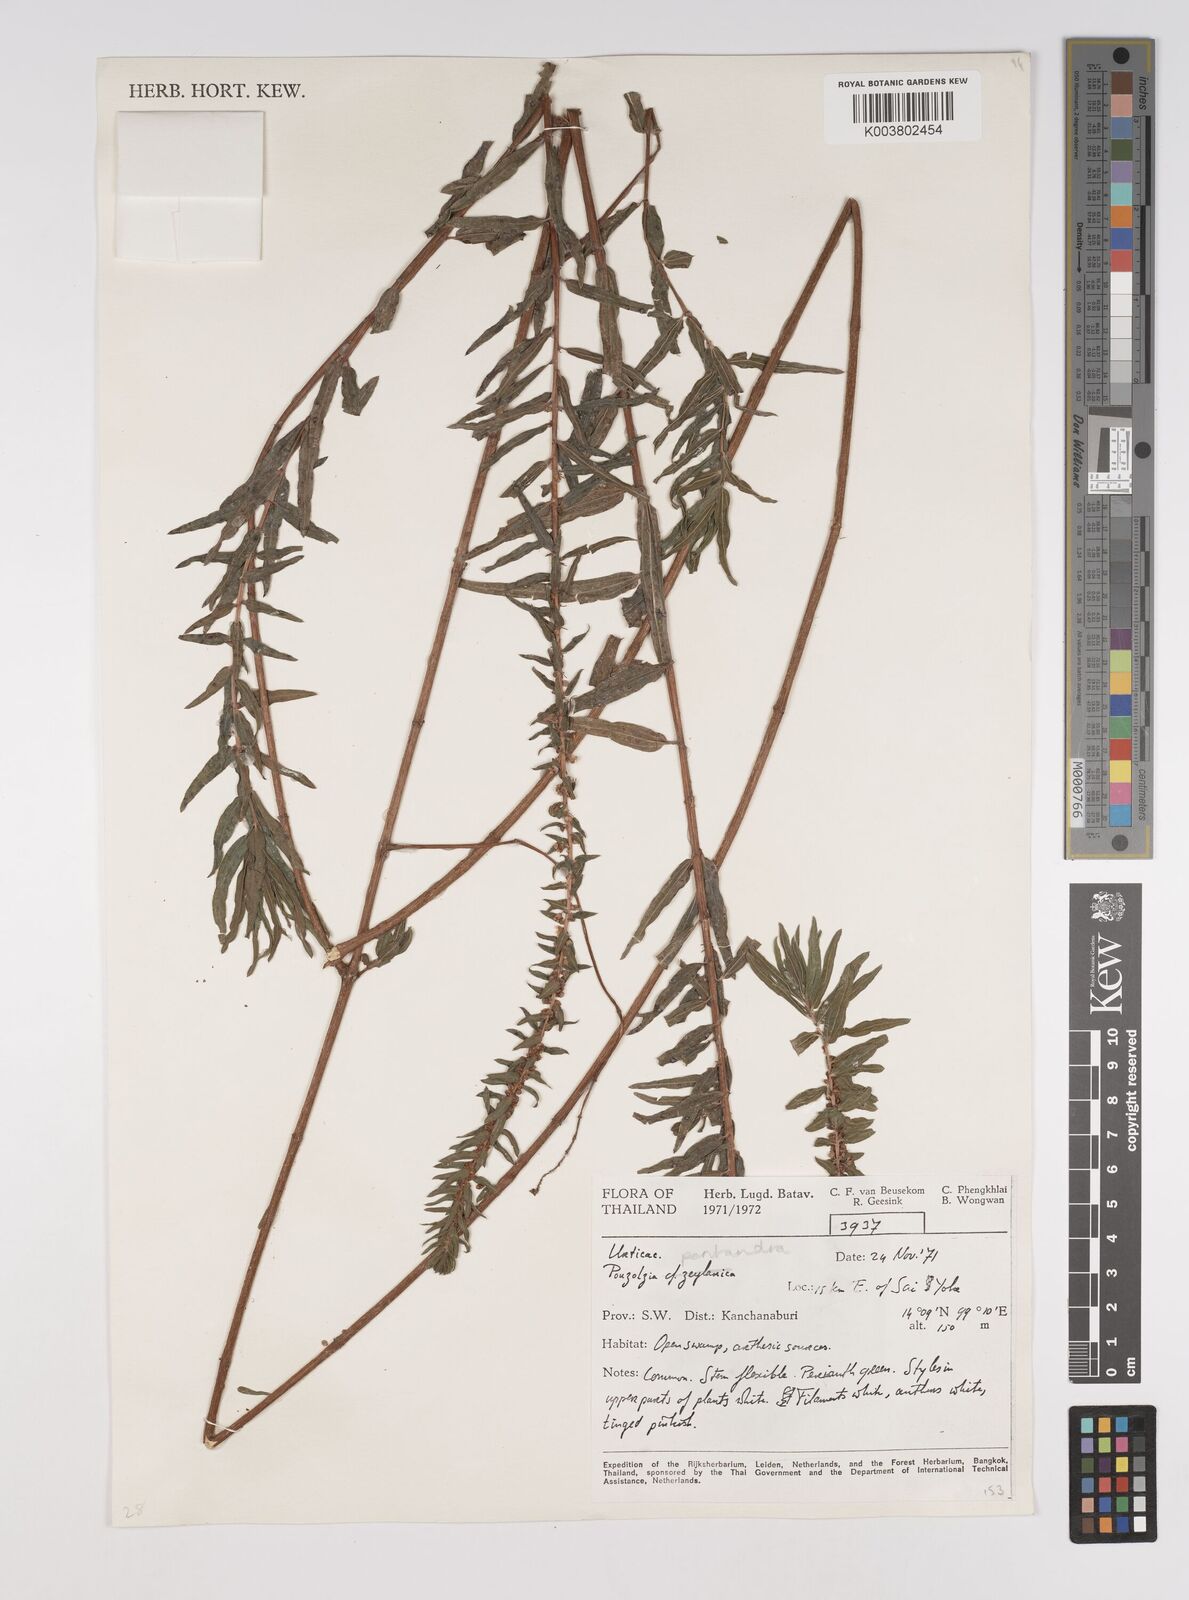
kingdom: Plantae
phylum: Tracheophyta
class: Magnoliopsida
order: Rosales
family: Urticaceae
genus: Gonostegia
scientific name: Gonostegia pentandra
